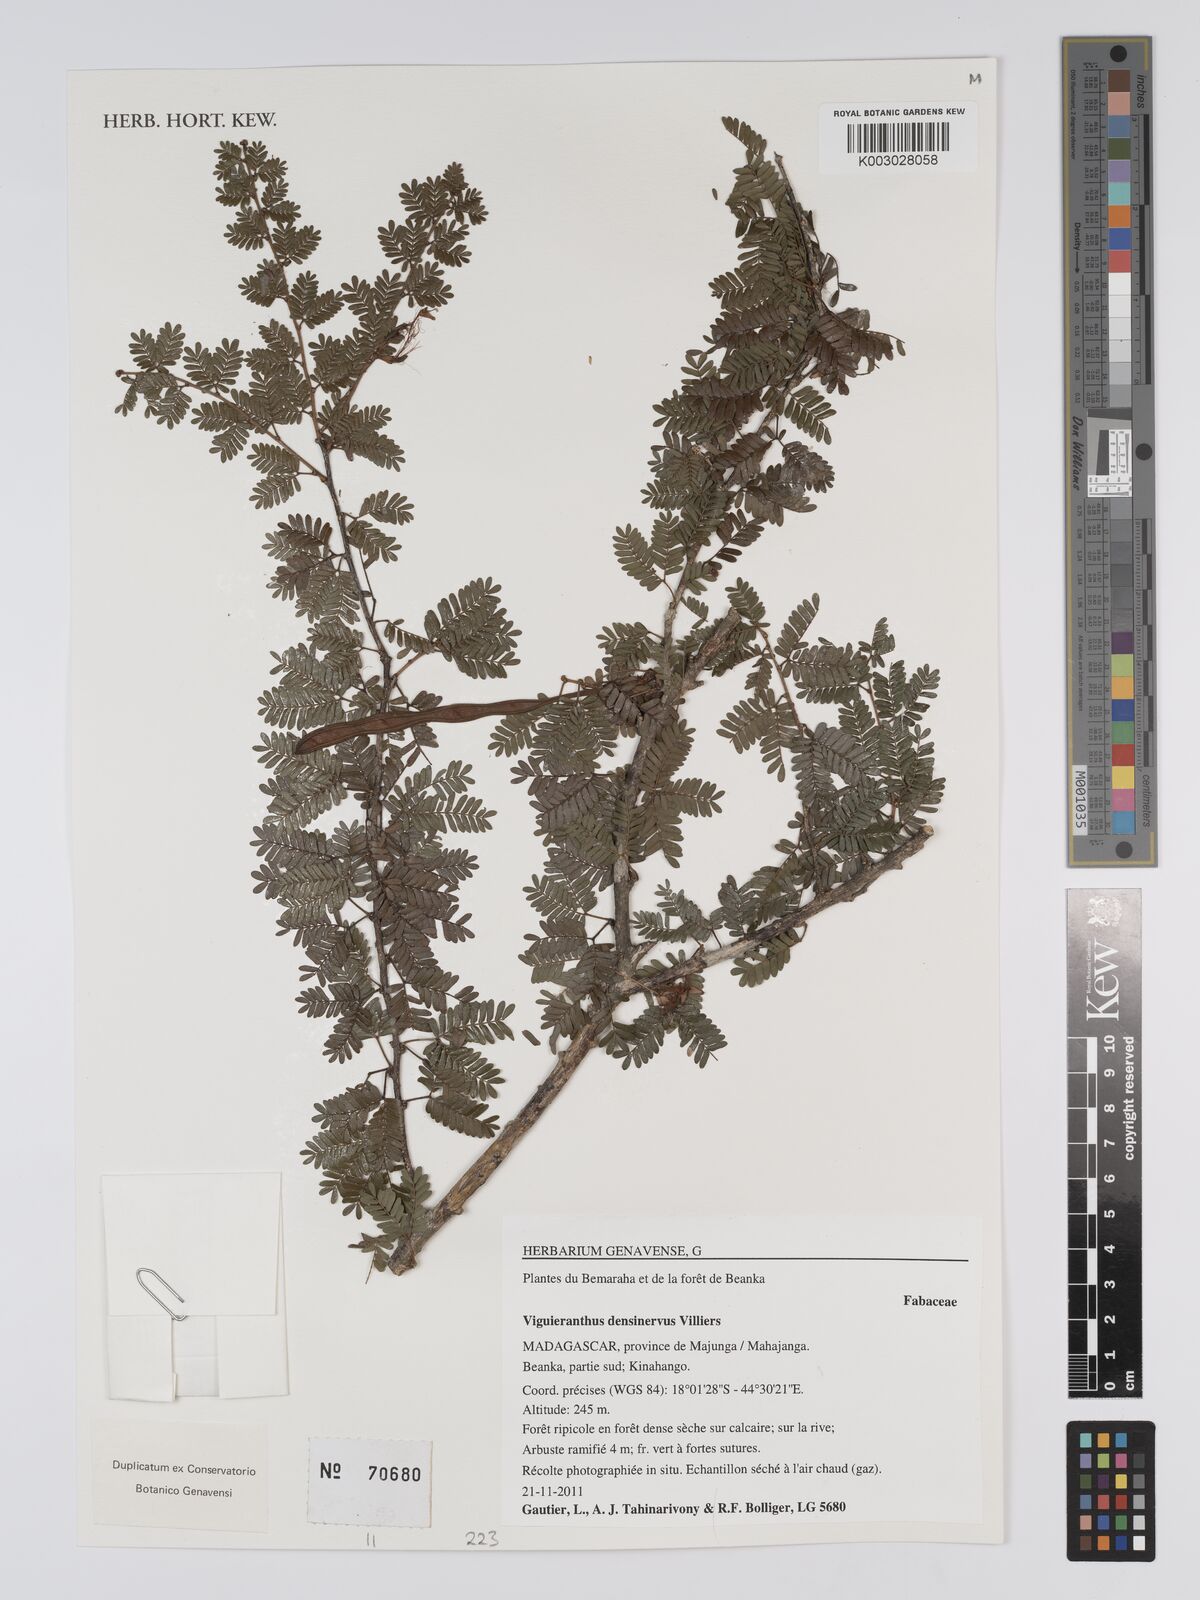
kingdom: Plantae
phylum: Tracheophyta
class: Magnoliopsida
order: Fabales
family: Fabaceae
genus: Viguieranthus
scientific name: Viguieranthus densinervus
